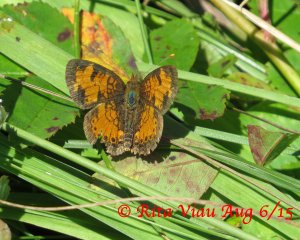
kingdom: Animalia
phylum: Arthropoda
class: Insecta
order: Lepidoptera
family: Nymphalidae
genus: Phyciodes
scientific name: Phyciodes tharos
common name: Northern Crescent
